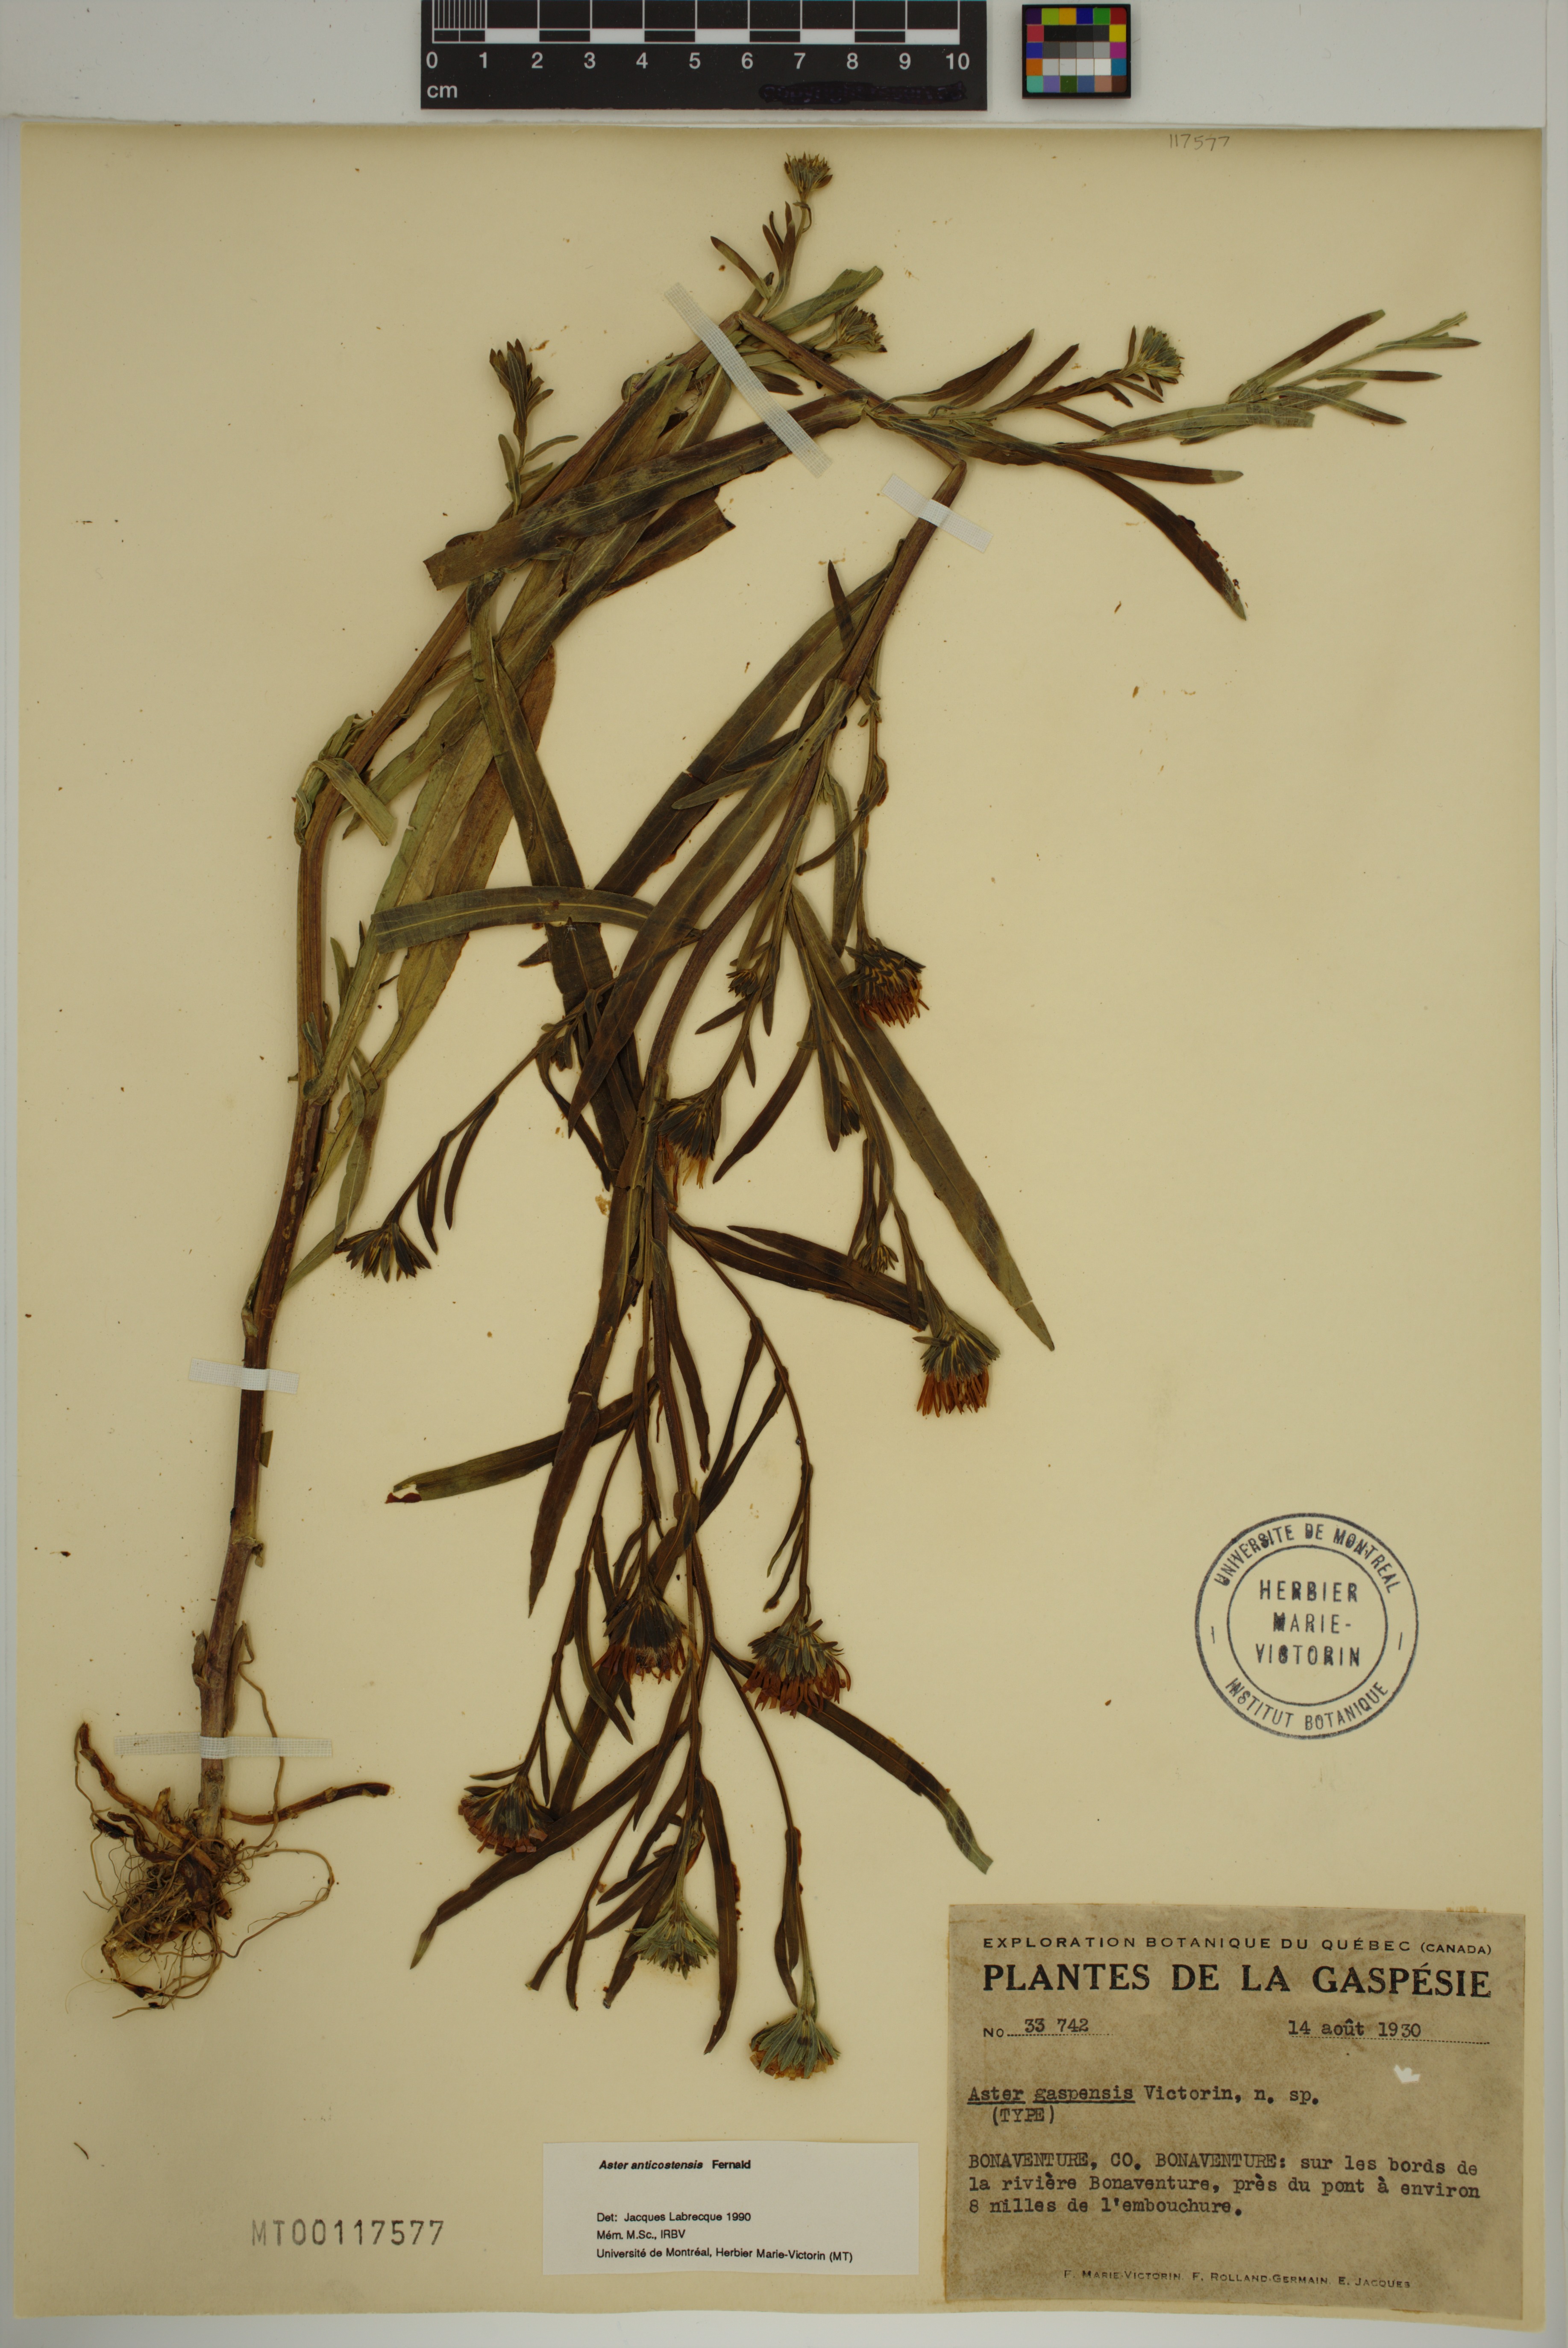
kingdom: Plantae
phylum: Tracheophyta
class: Magnoliopsida
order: Asterales
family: Asteraceae
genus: Symphyotrichum
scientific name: Symphyotrichum anticostense
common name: Anticosti island aster
